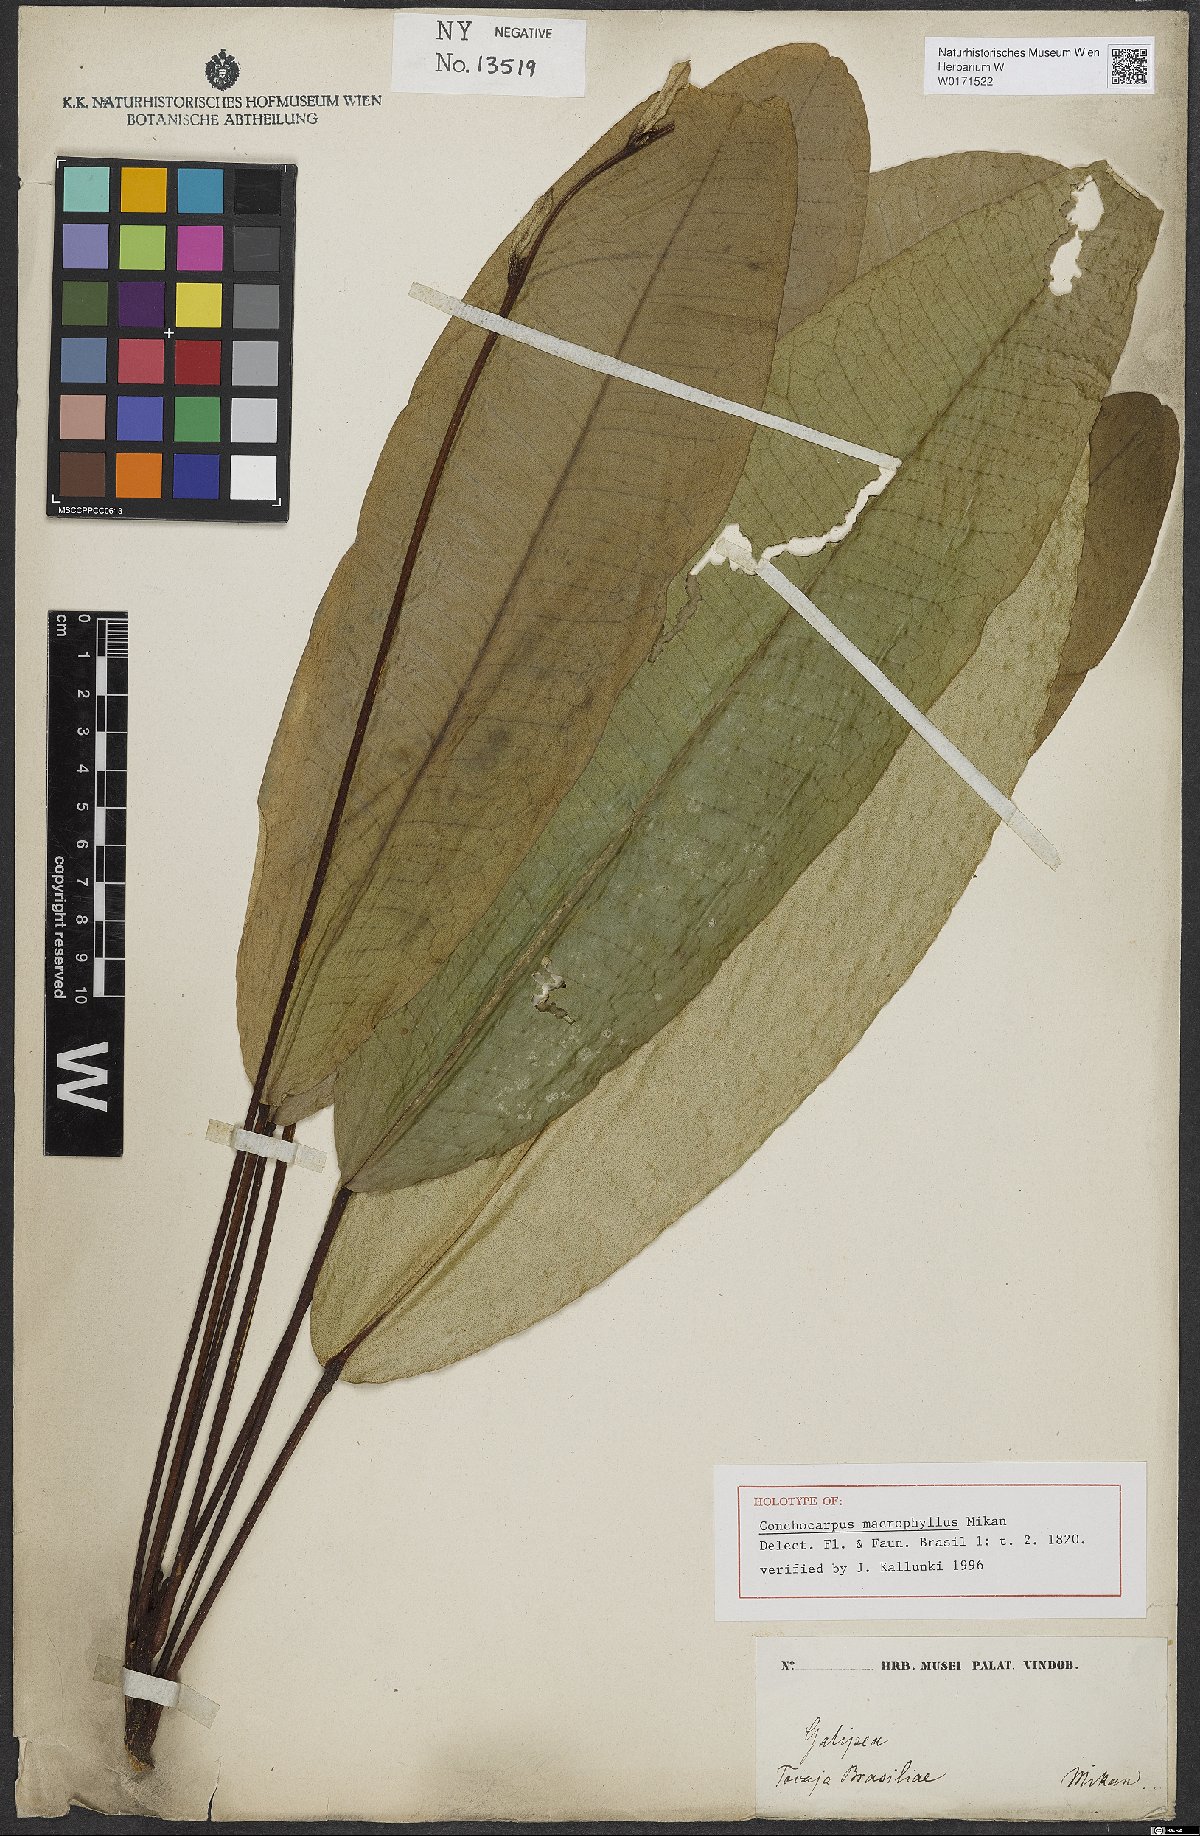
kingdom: Plantae
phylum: Tracheophyta
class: Magnoliopsida
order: Sapindales
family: Rutaceae
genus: Conchocarpus
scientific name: Conchocarpus macrophyllus
